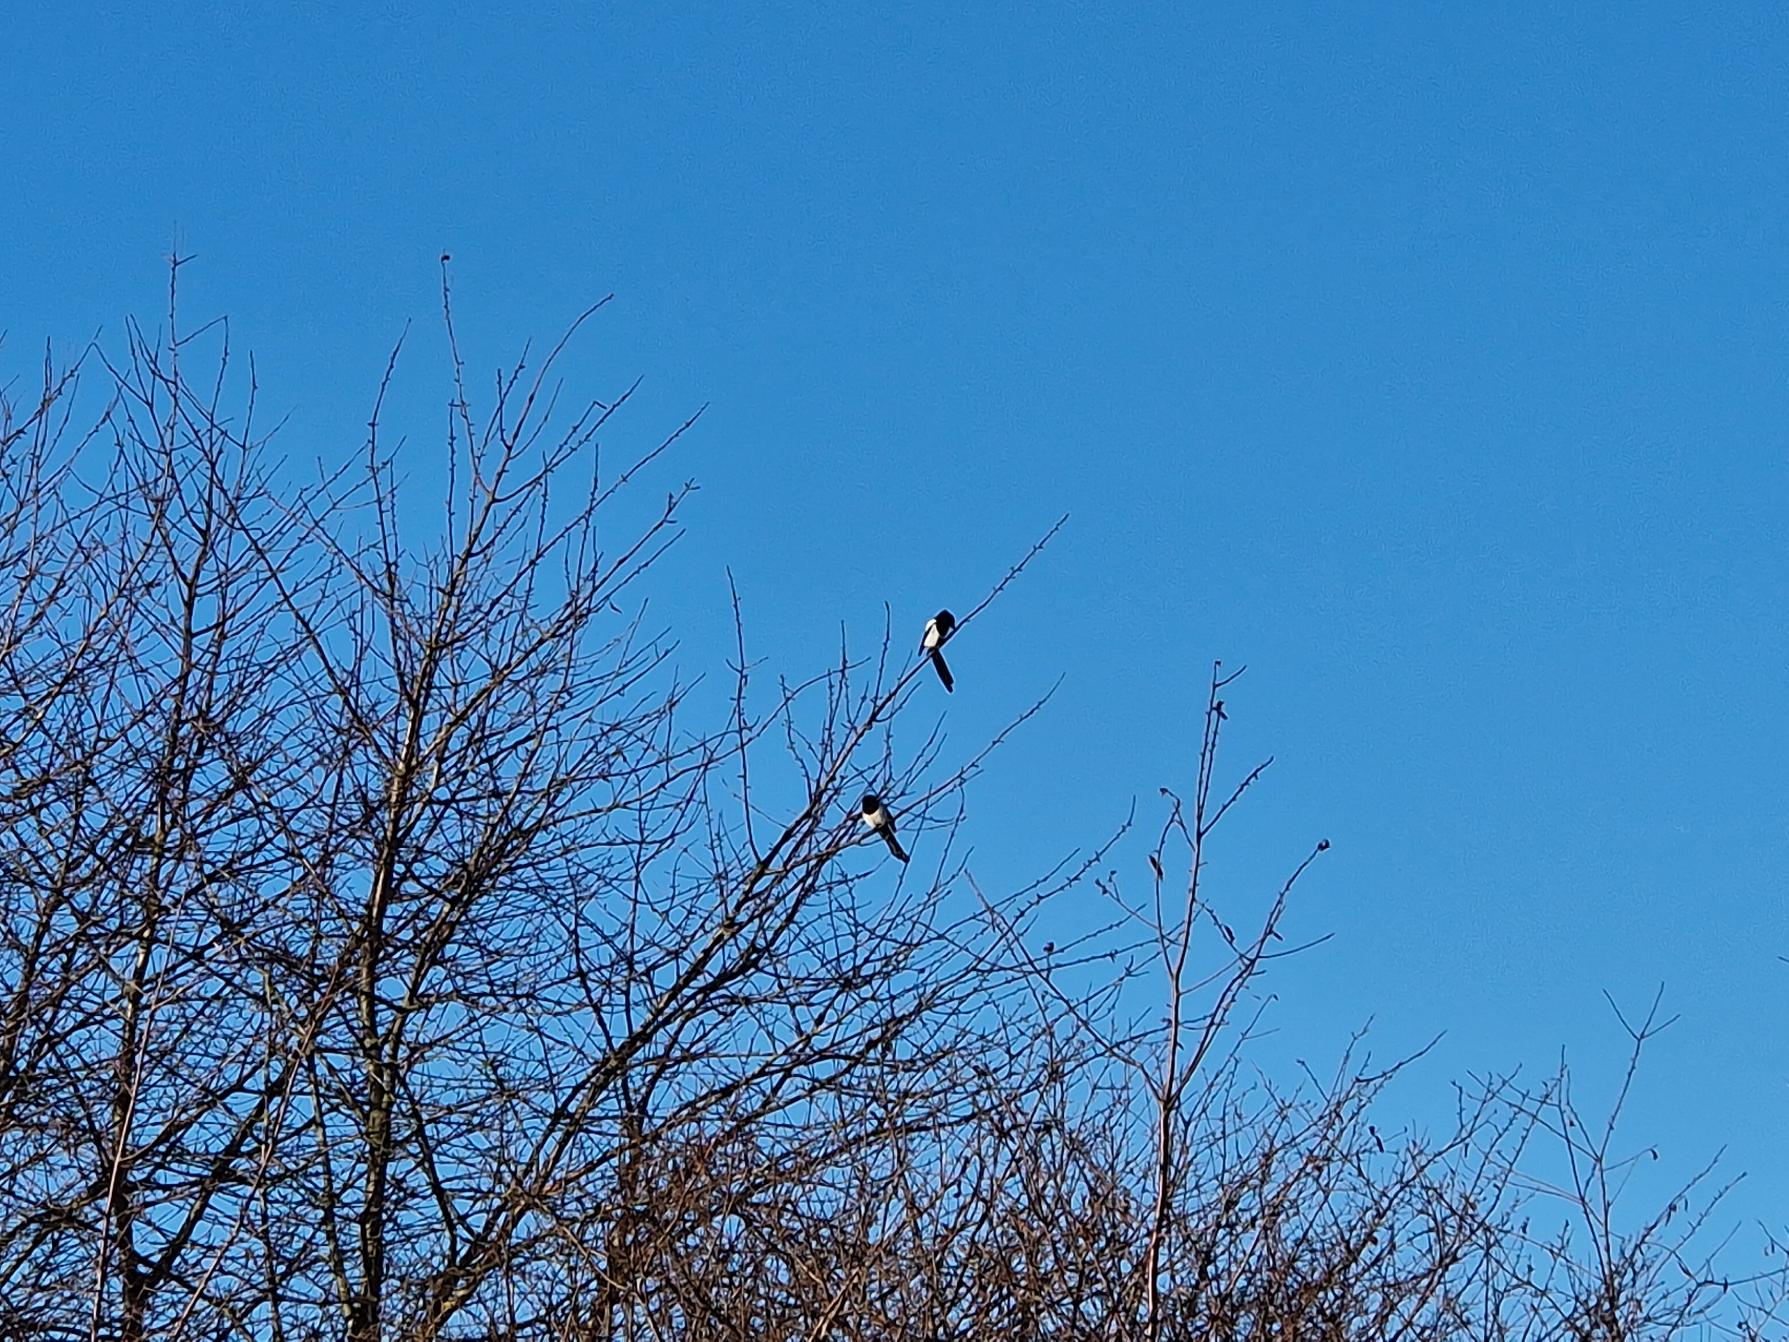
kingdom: Animalia
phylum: Chordata
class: Aves
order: Passeriformes
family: Corvidae
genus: Pica
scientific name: Pica pica
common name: Husskade
